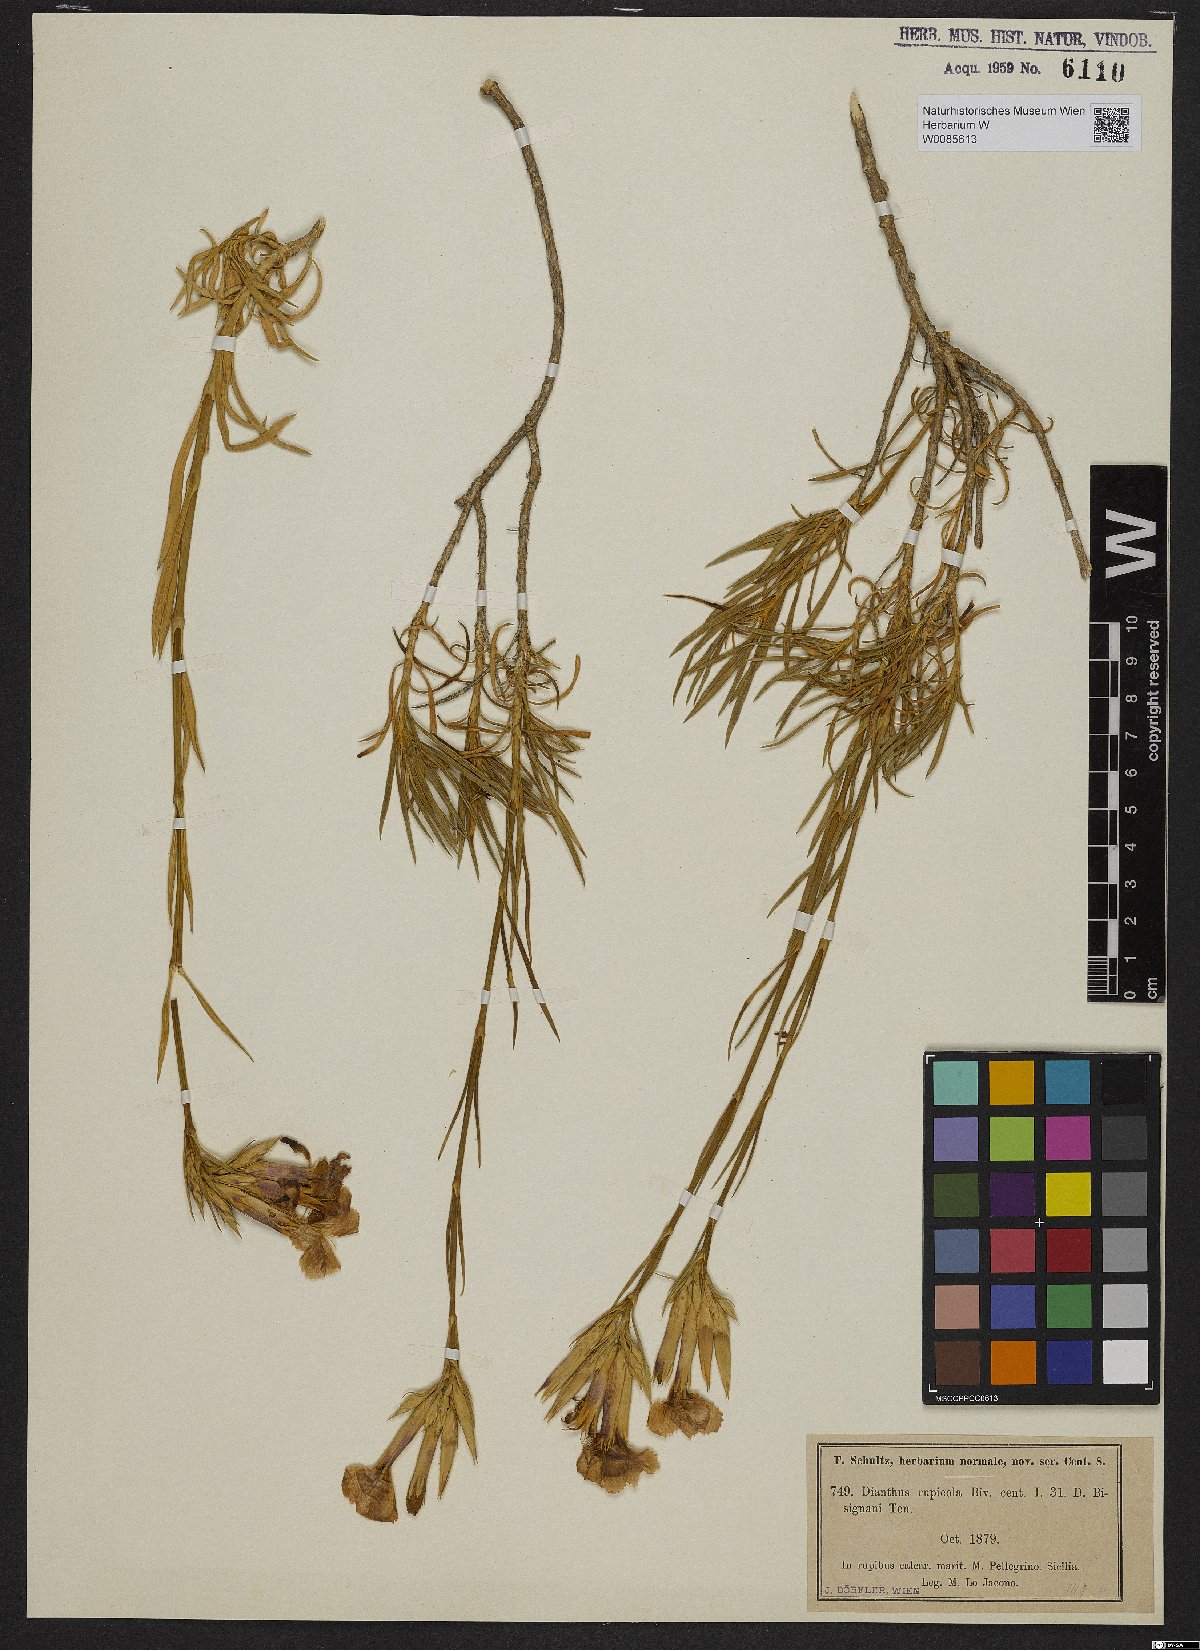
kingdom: Plantae
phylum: Tracheophyta
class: Magnoliopsida
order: Caryophyllales
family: Caryophyllaceae
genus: Dianthus
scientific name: Dianthus rupicola
